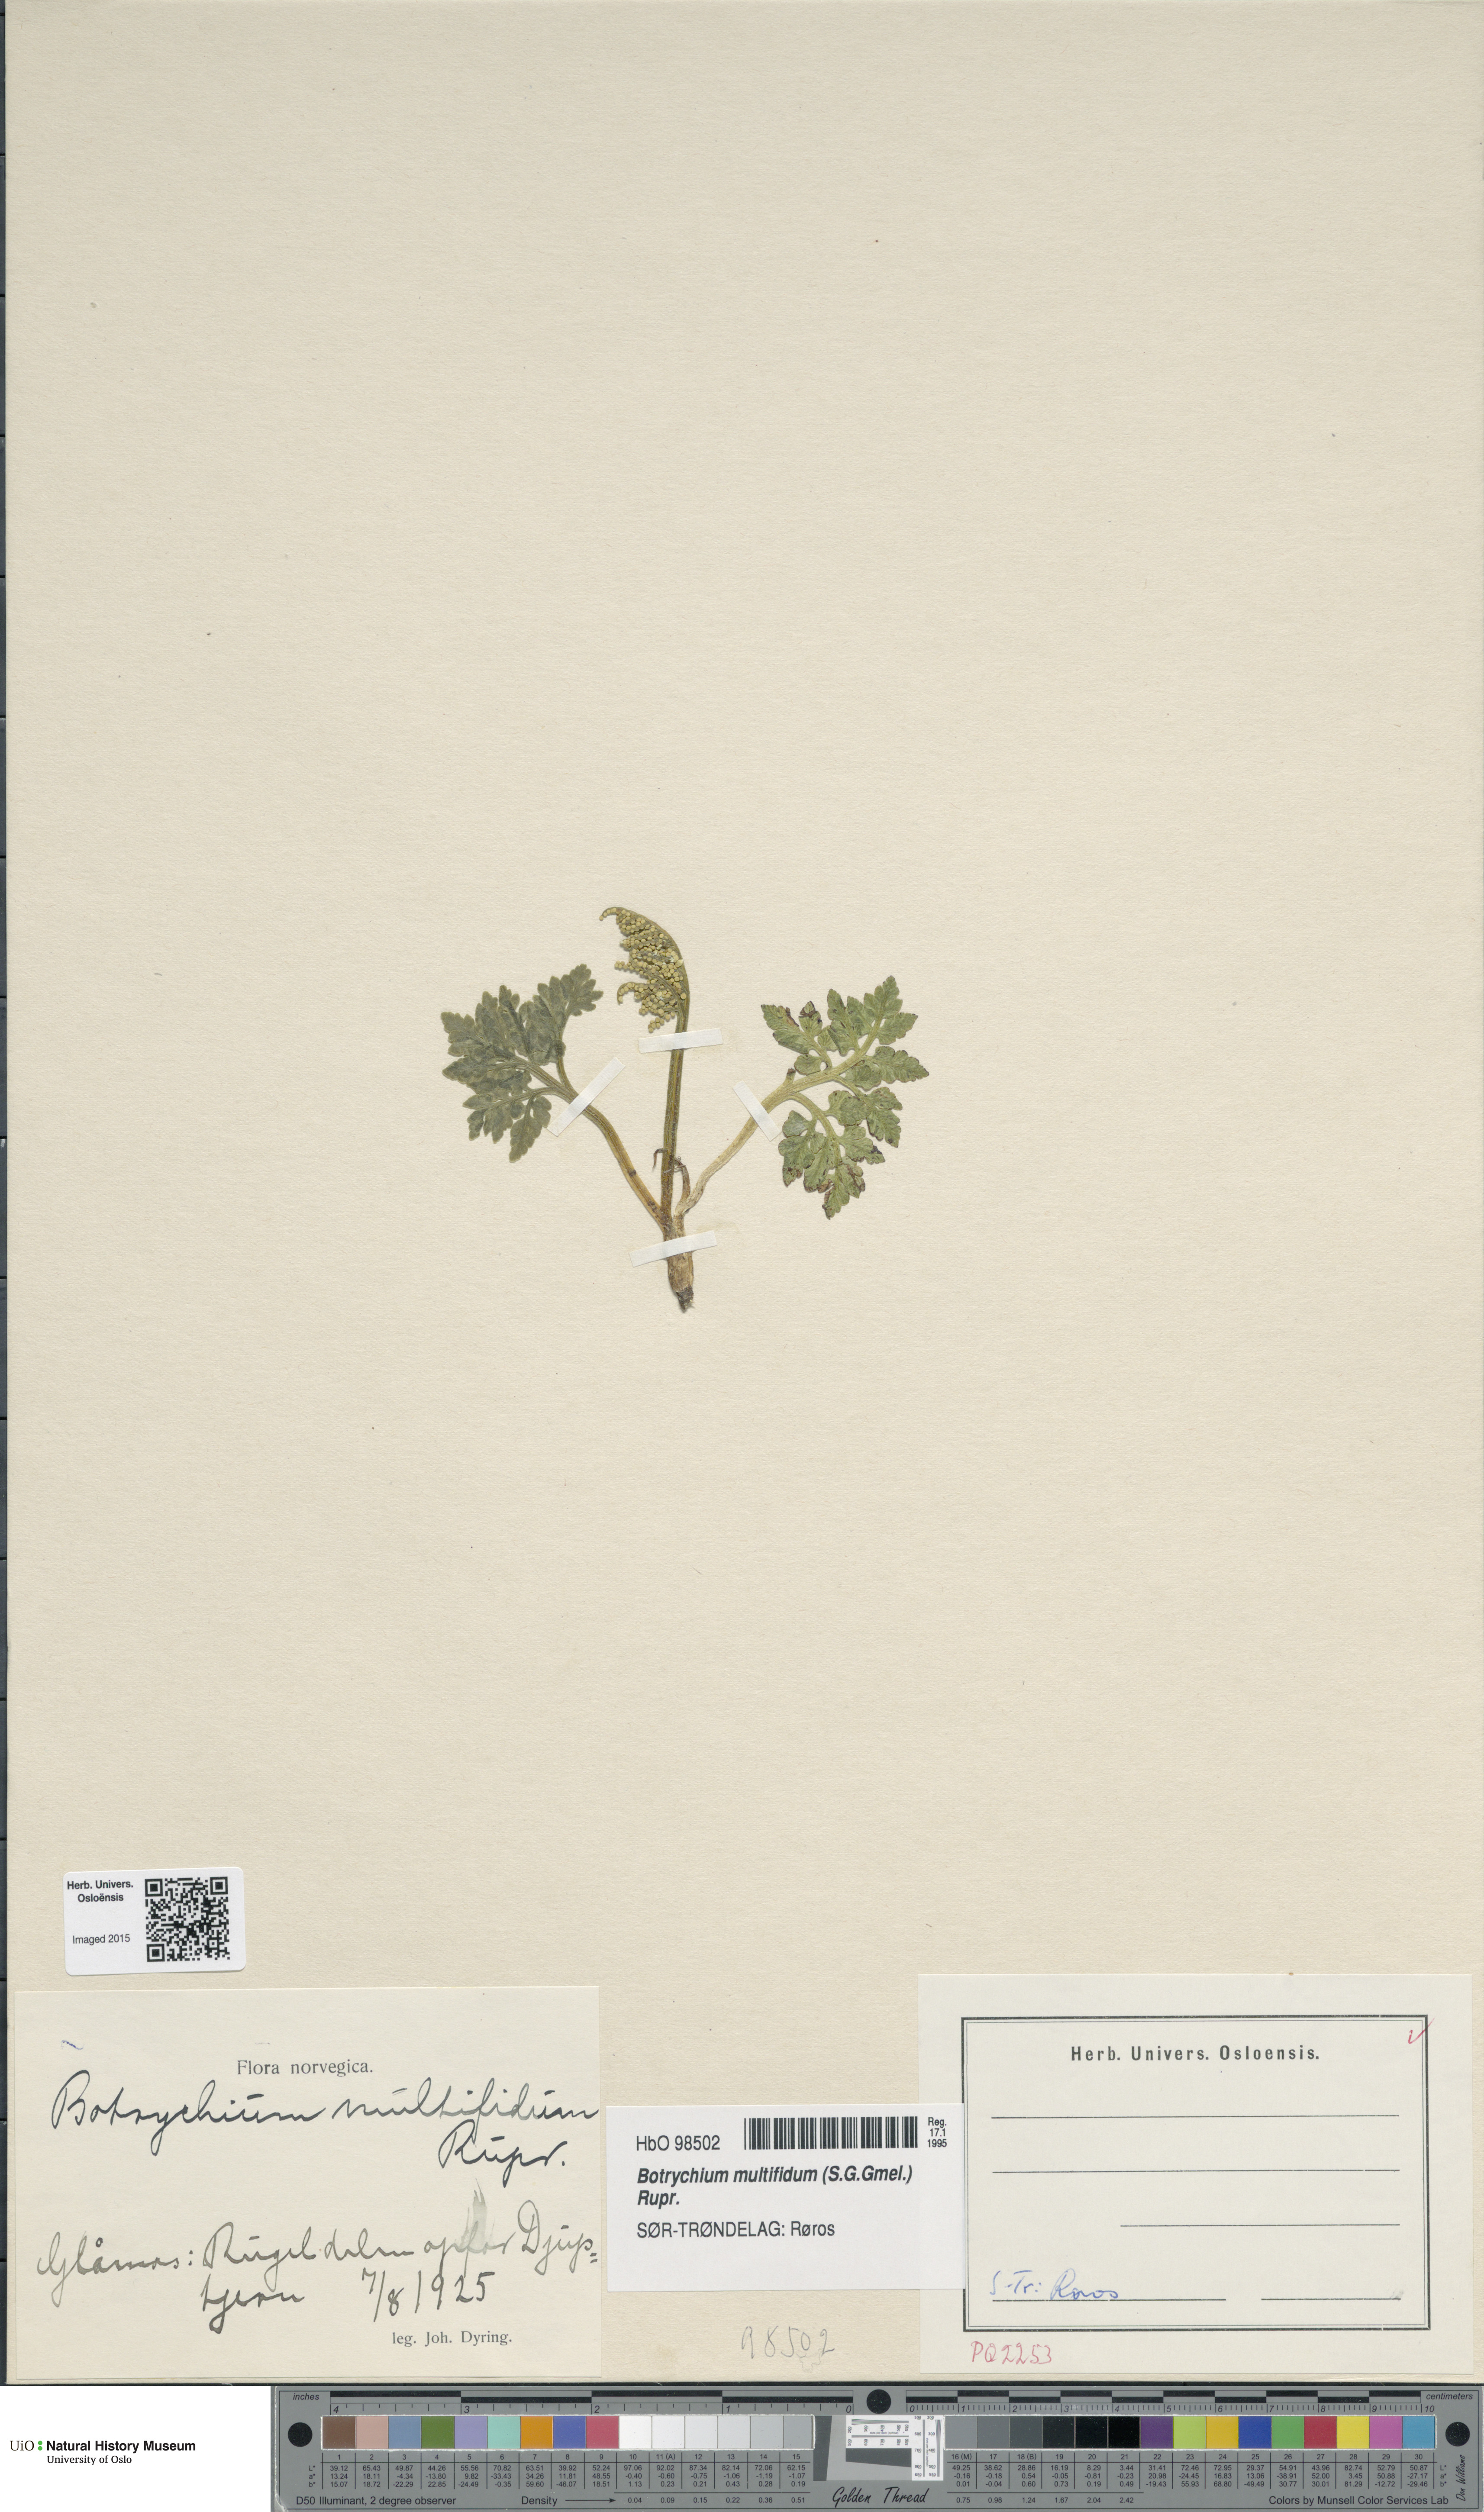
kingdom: Plantae
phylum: Tracheophyta
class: Polypodiopsida
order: Ophioglossales
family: Ophioglossaceae
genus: Sceptridium
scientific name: Sceptridium multifidum
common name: Leathery grape fern
